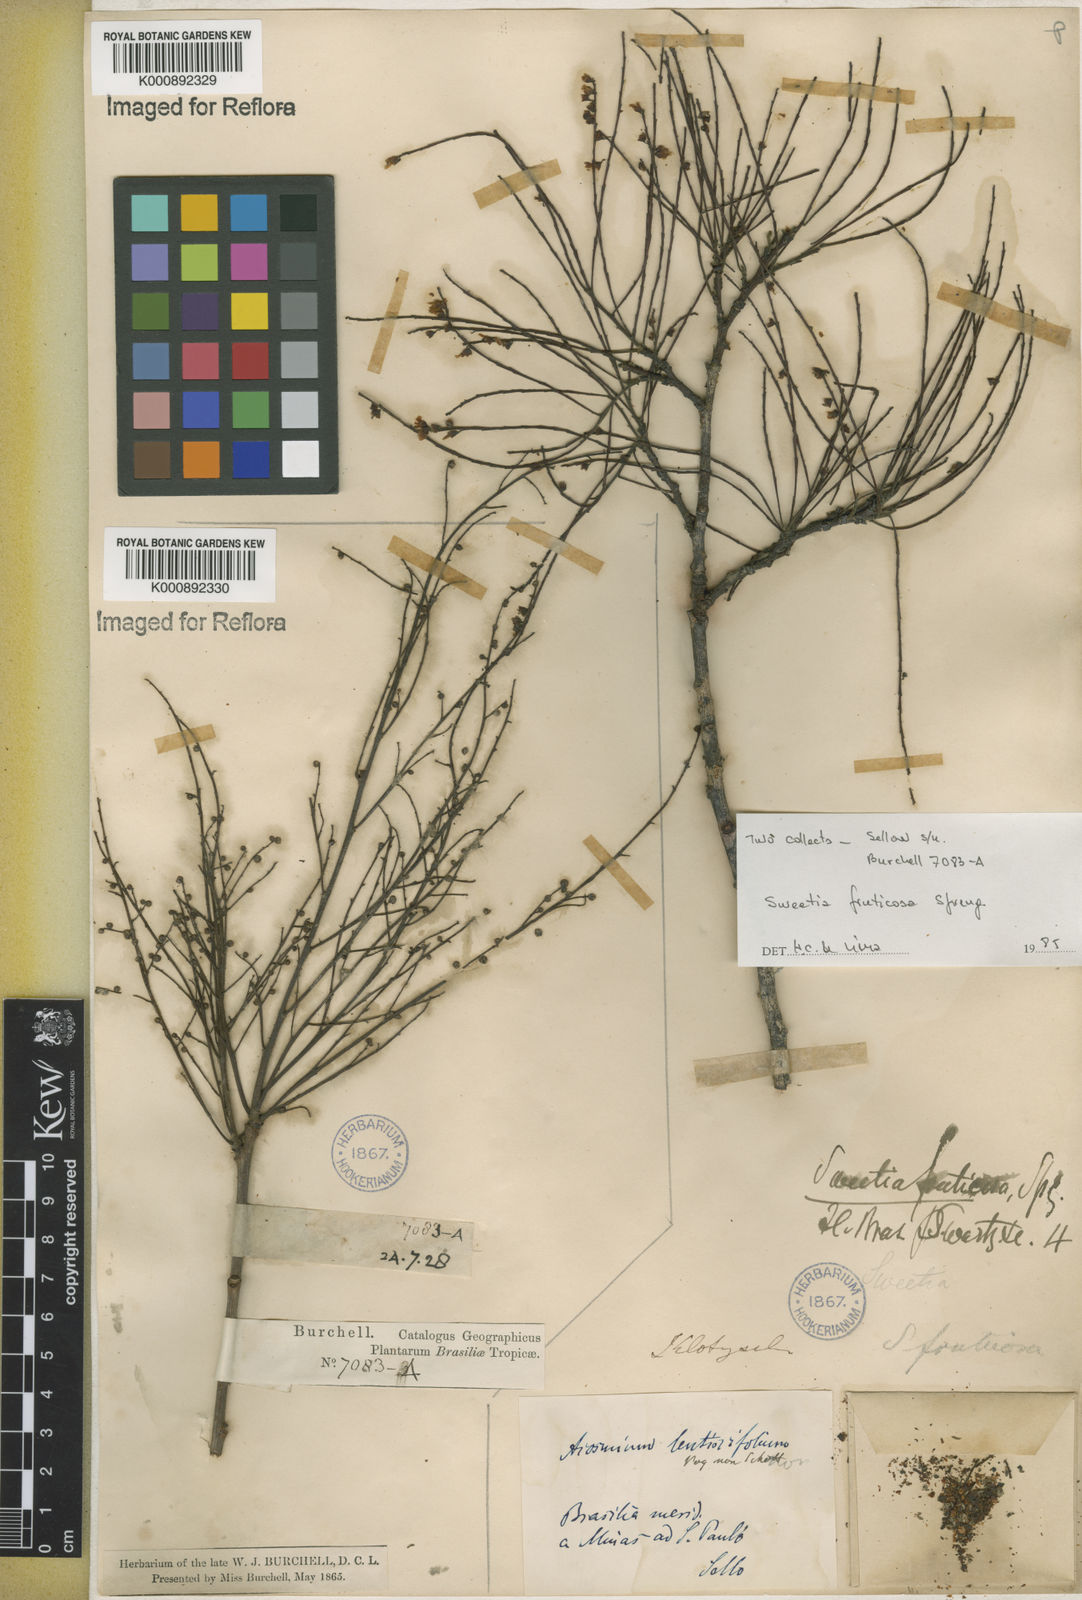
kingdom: Plantae
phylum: Tracheophyta
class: Magnoliopsida
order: Fabales
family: Fabaceae
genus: Sweetia
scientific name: Sweetia fruticosa
